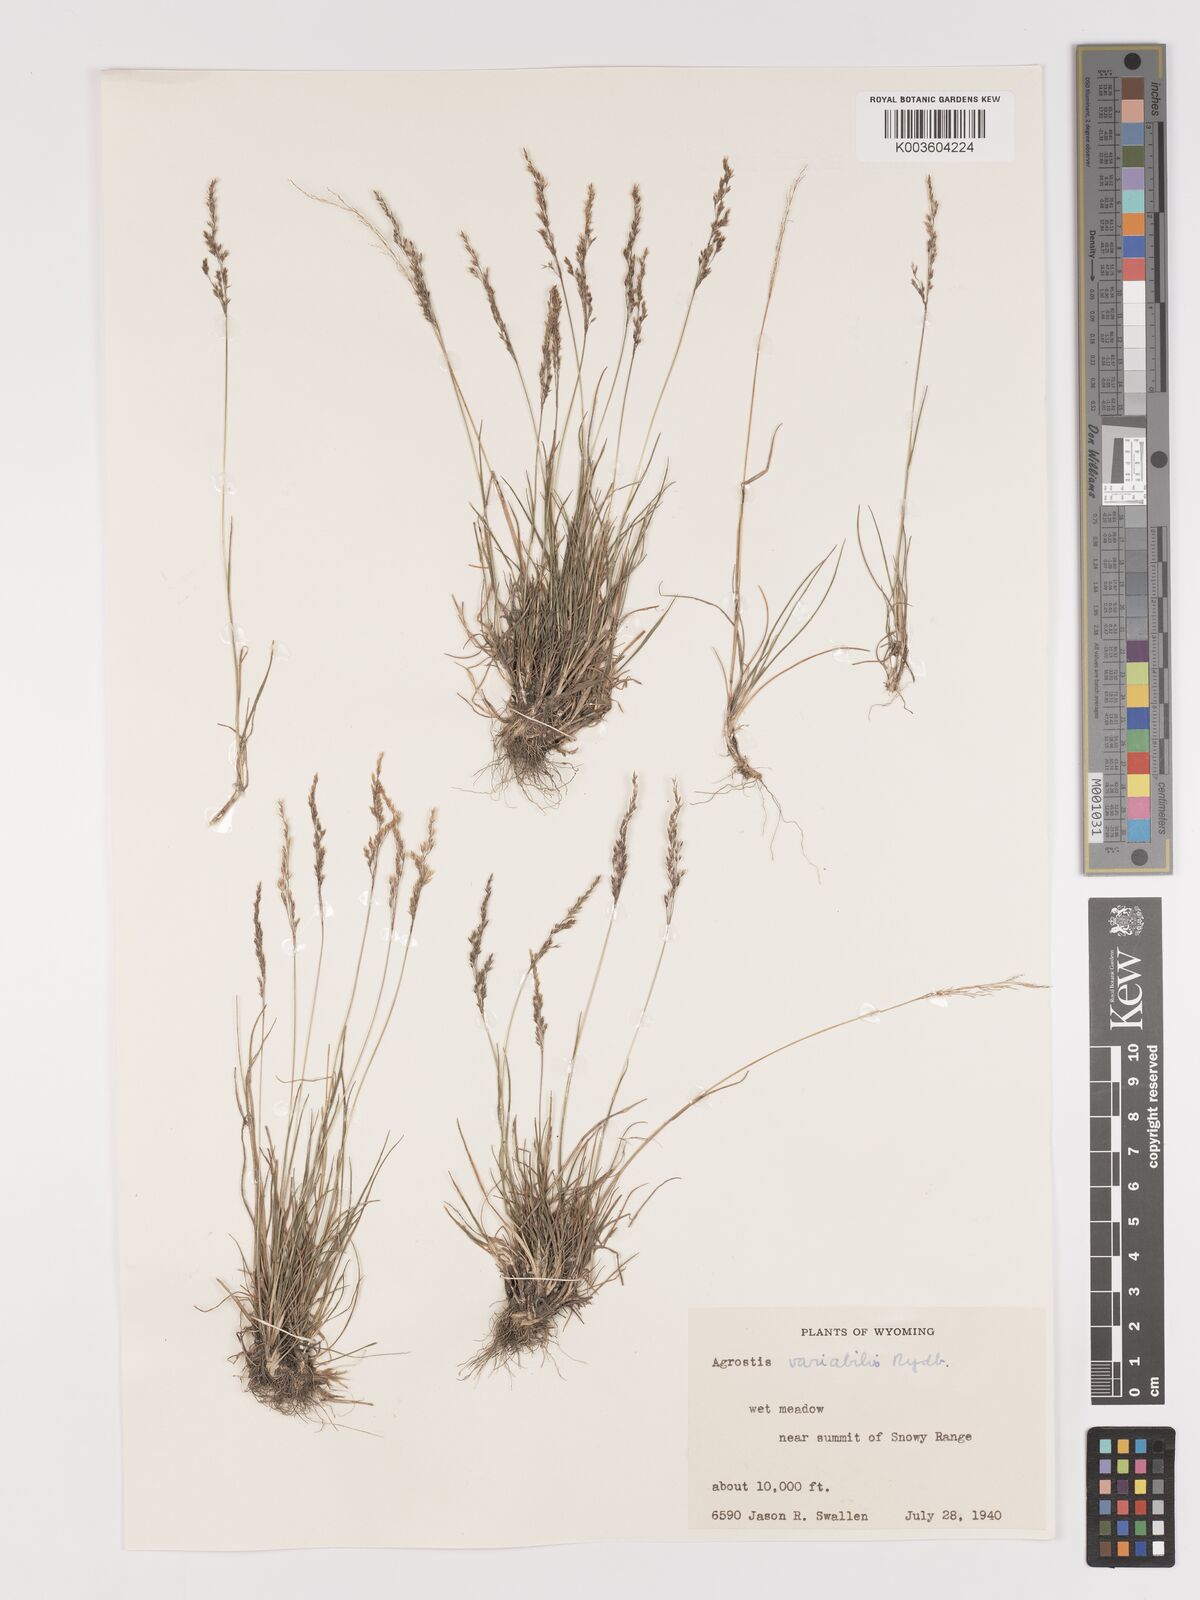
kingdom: Plantae
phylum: Tracheophyta
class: Liliopsida
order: Poales
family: Poaceae
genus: Agrostis
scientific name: Agrostis variabilis
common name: Alpine bent
